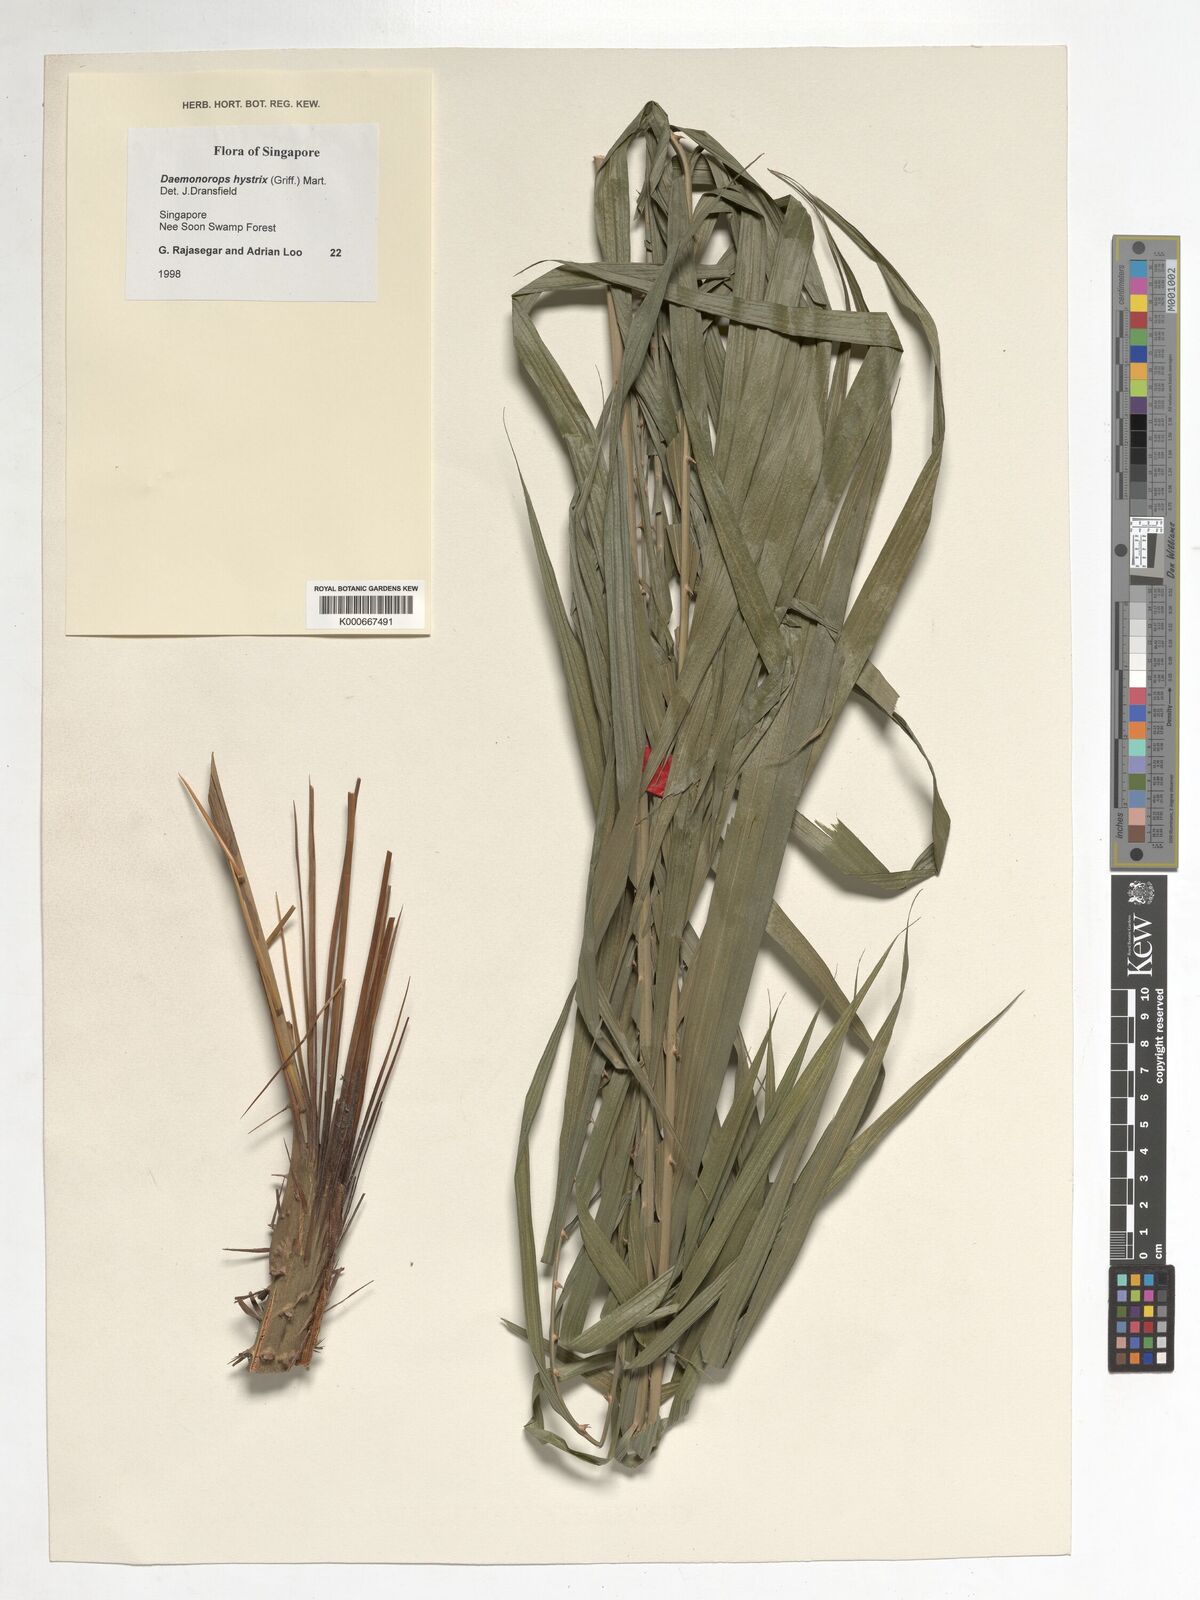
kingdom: Plantae
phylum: Tracheophyta
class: Liliopsida
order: Arecales
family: Arecaceae
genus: Calamus
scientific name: Calamus hirsutus
